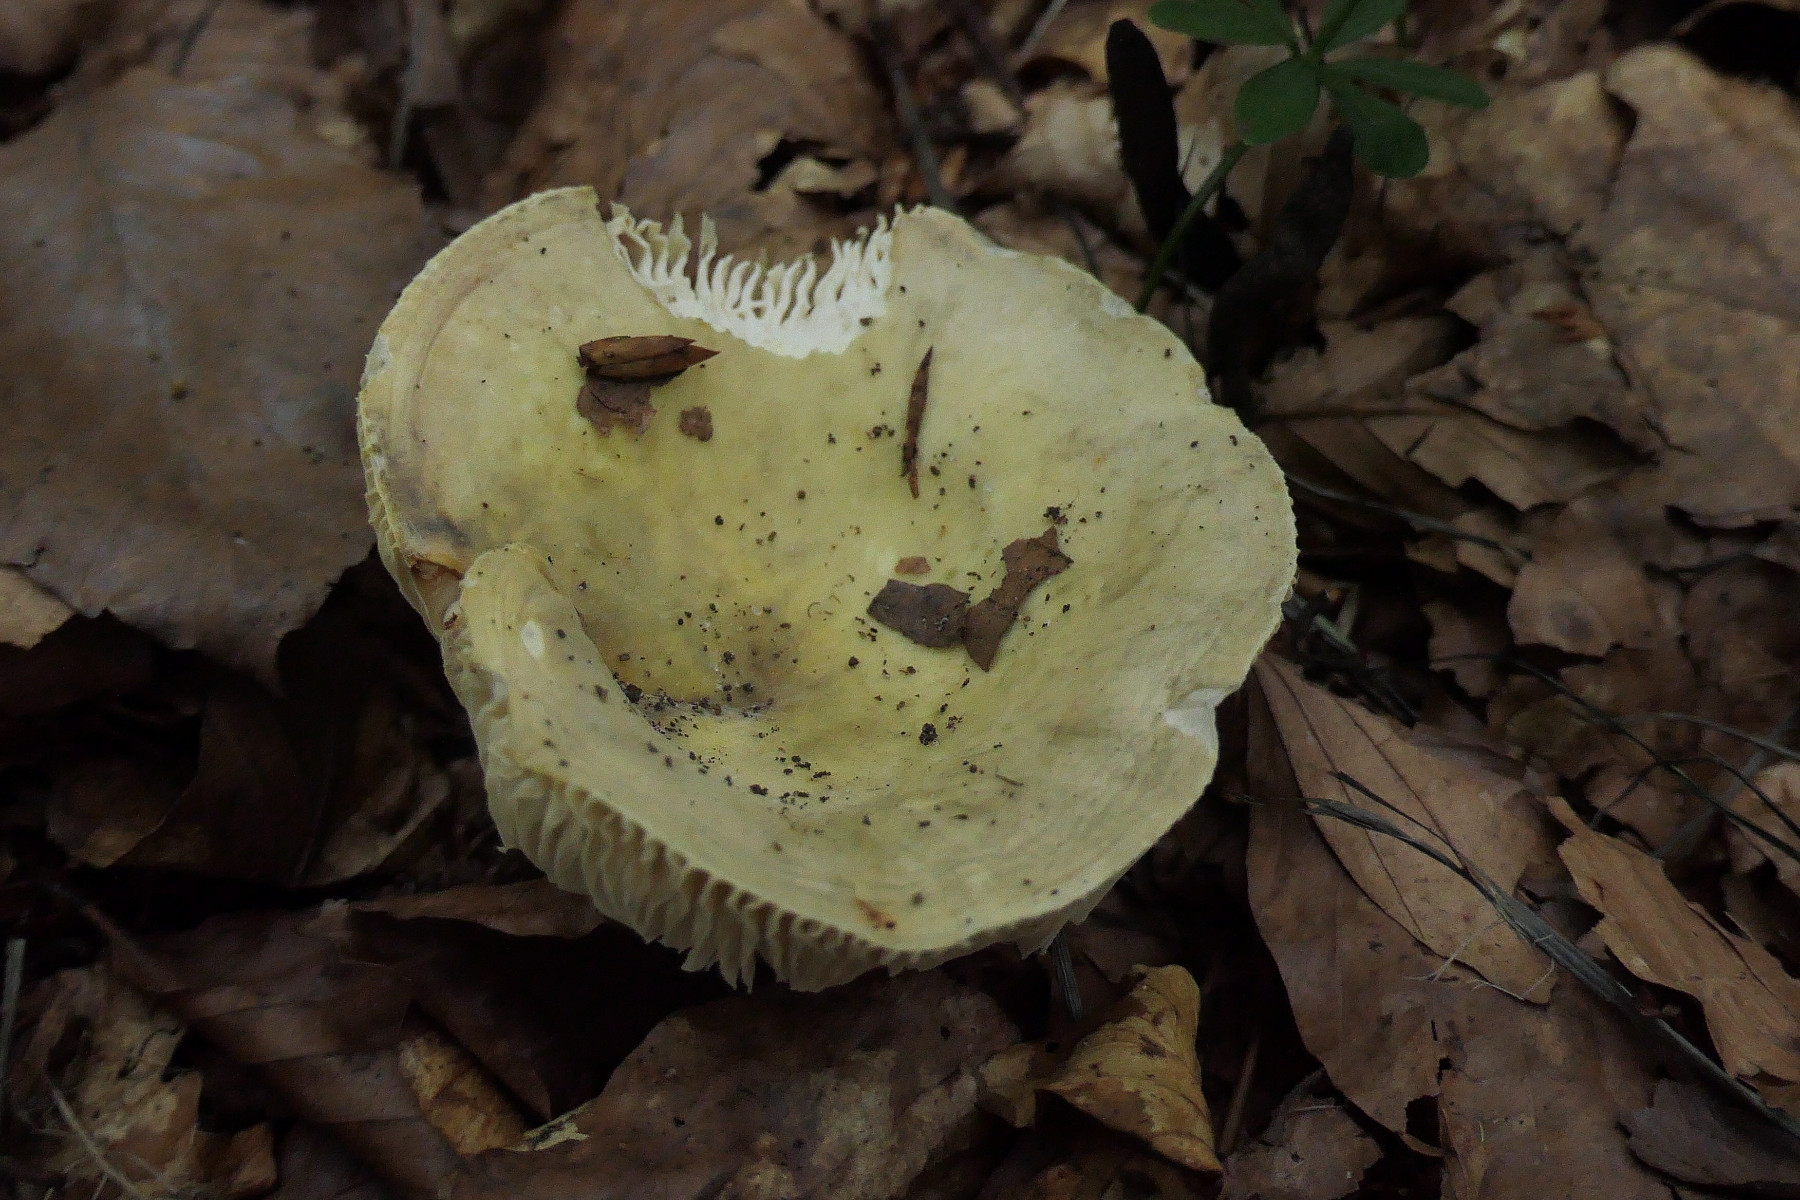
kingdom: Fungi
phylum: Basidiomycota
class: Agaricomycetes
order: Russulales
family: Russulaceae
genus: Russula
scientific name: Russula violeipes
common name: ferskengul skørhat
